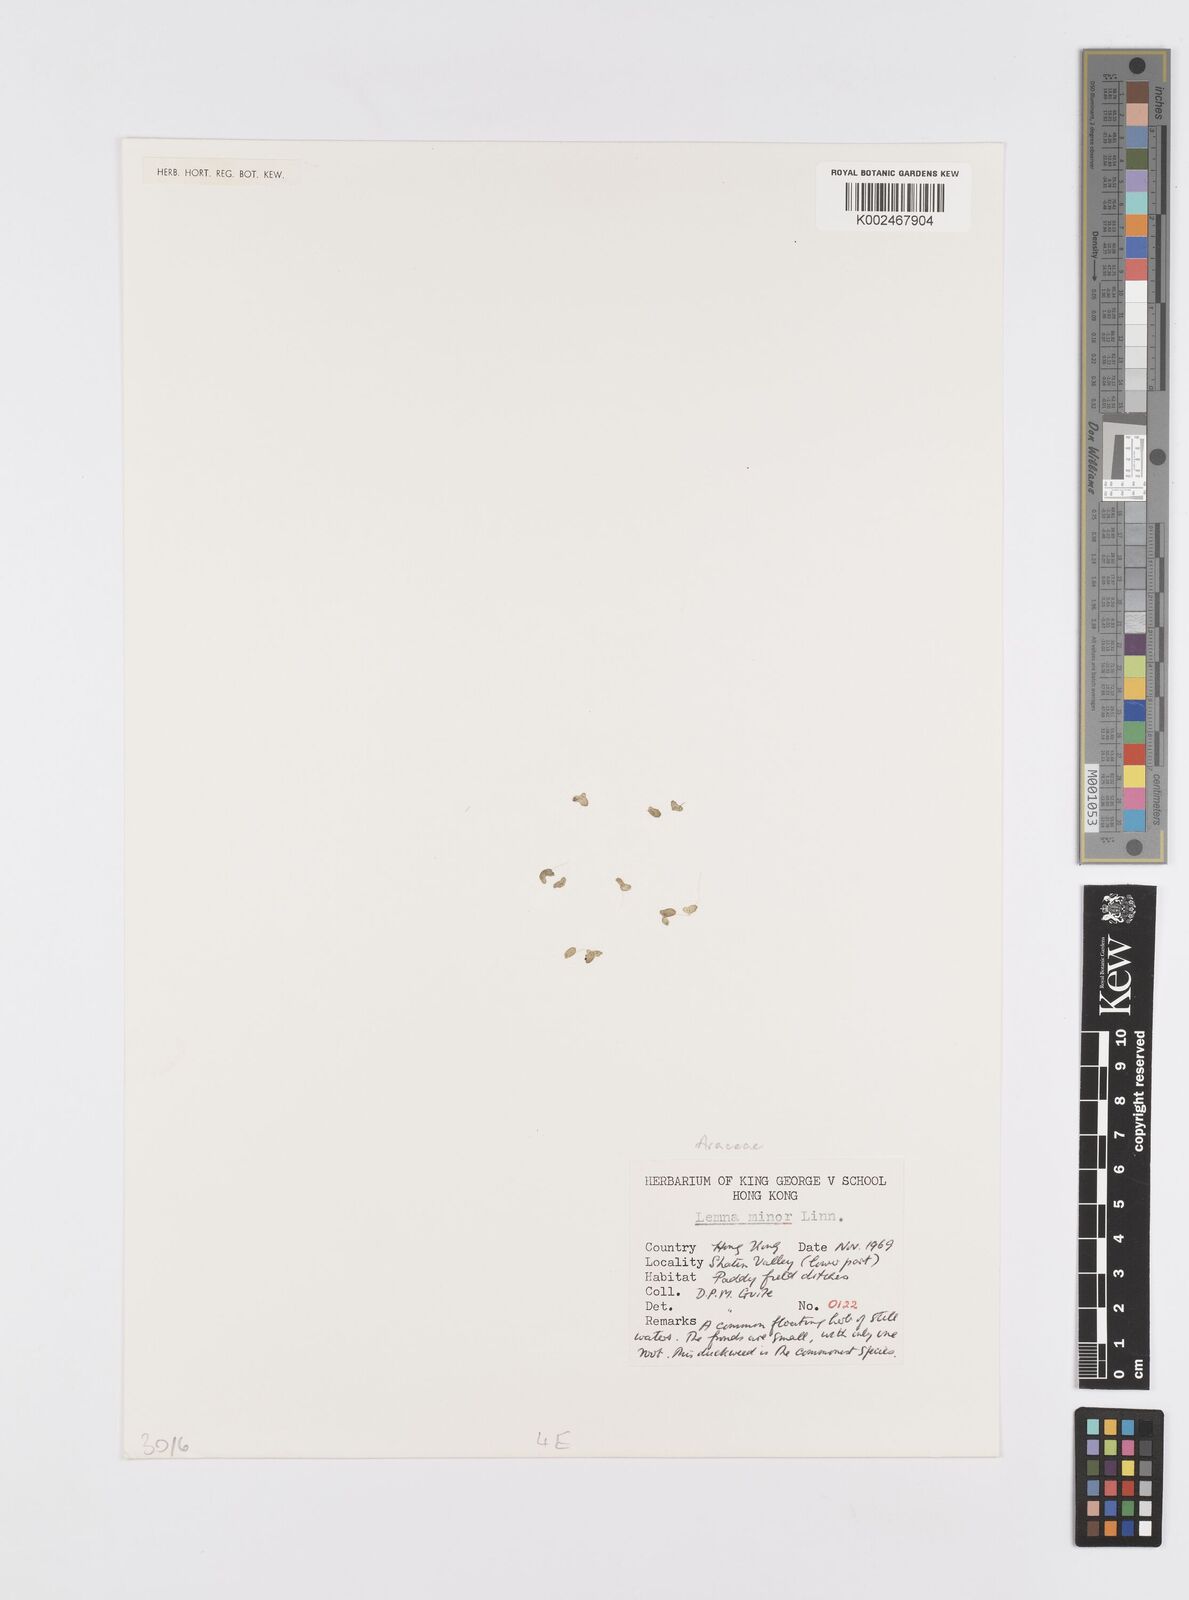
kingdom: Plantae
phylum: Tracheophyta
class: Liliopsida
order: Alismatales
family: Araceae
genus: Lemna
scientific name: Lemna minor
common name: Common duckweed
